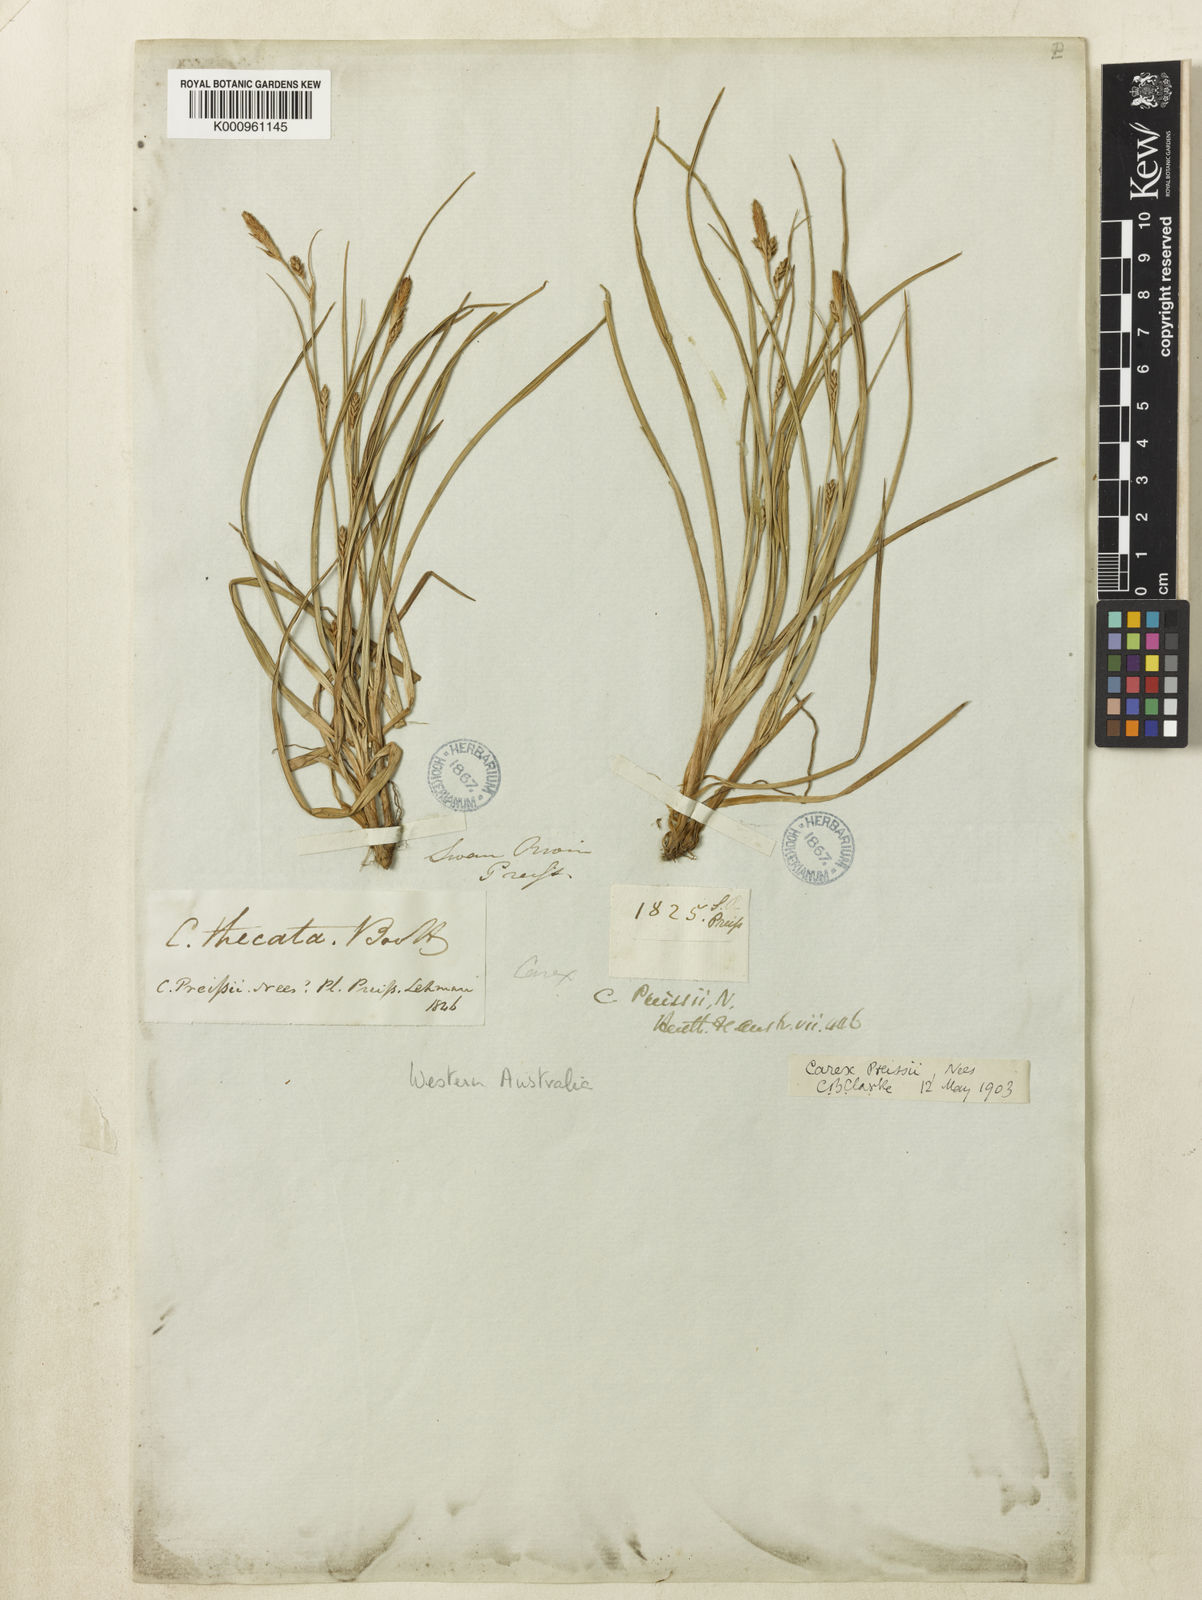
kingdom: Plantae
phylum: Tracheophyta
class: Liliopsida
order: Poales
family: Cyperaceae
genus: Carex
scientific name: Carex preissii
